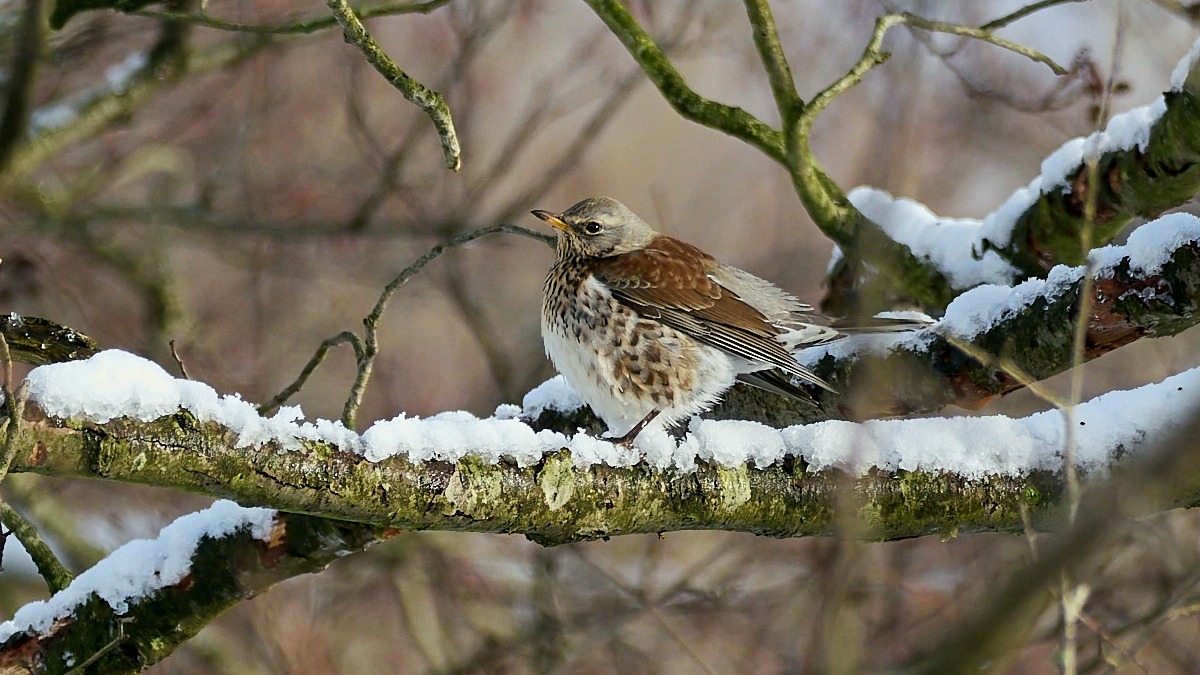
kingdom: Animalia
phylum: Chordata
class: Aves
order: Passeriformes
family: Turdidae
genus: Turdus
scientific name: Turdus pilaris
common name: Sjagger
